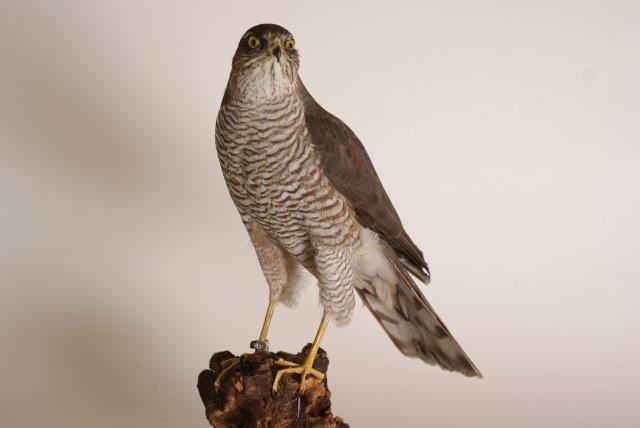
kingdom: Animalia
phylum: Chordata
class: Aves
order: Accipitriformes
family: Accipitridae
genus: Accipiter
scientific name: Accipiter nisus
